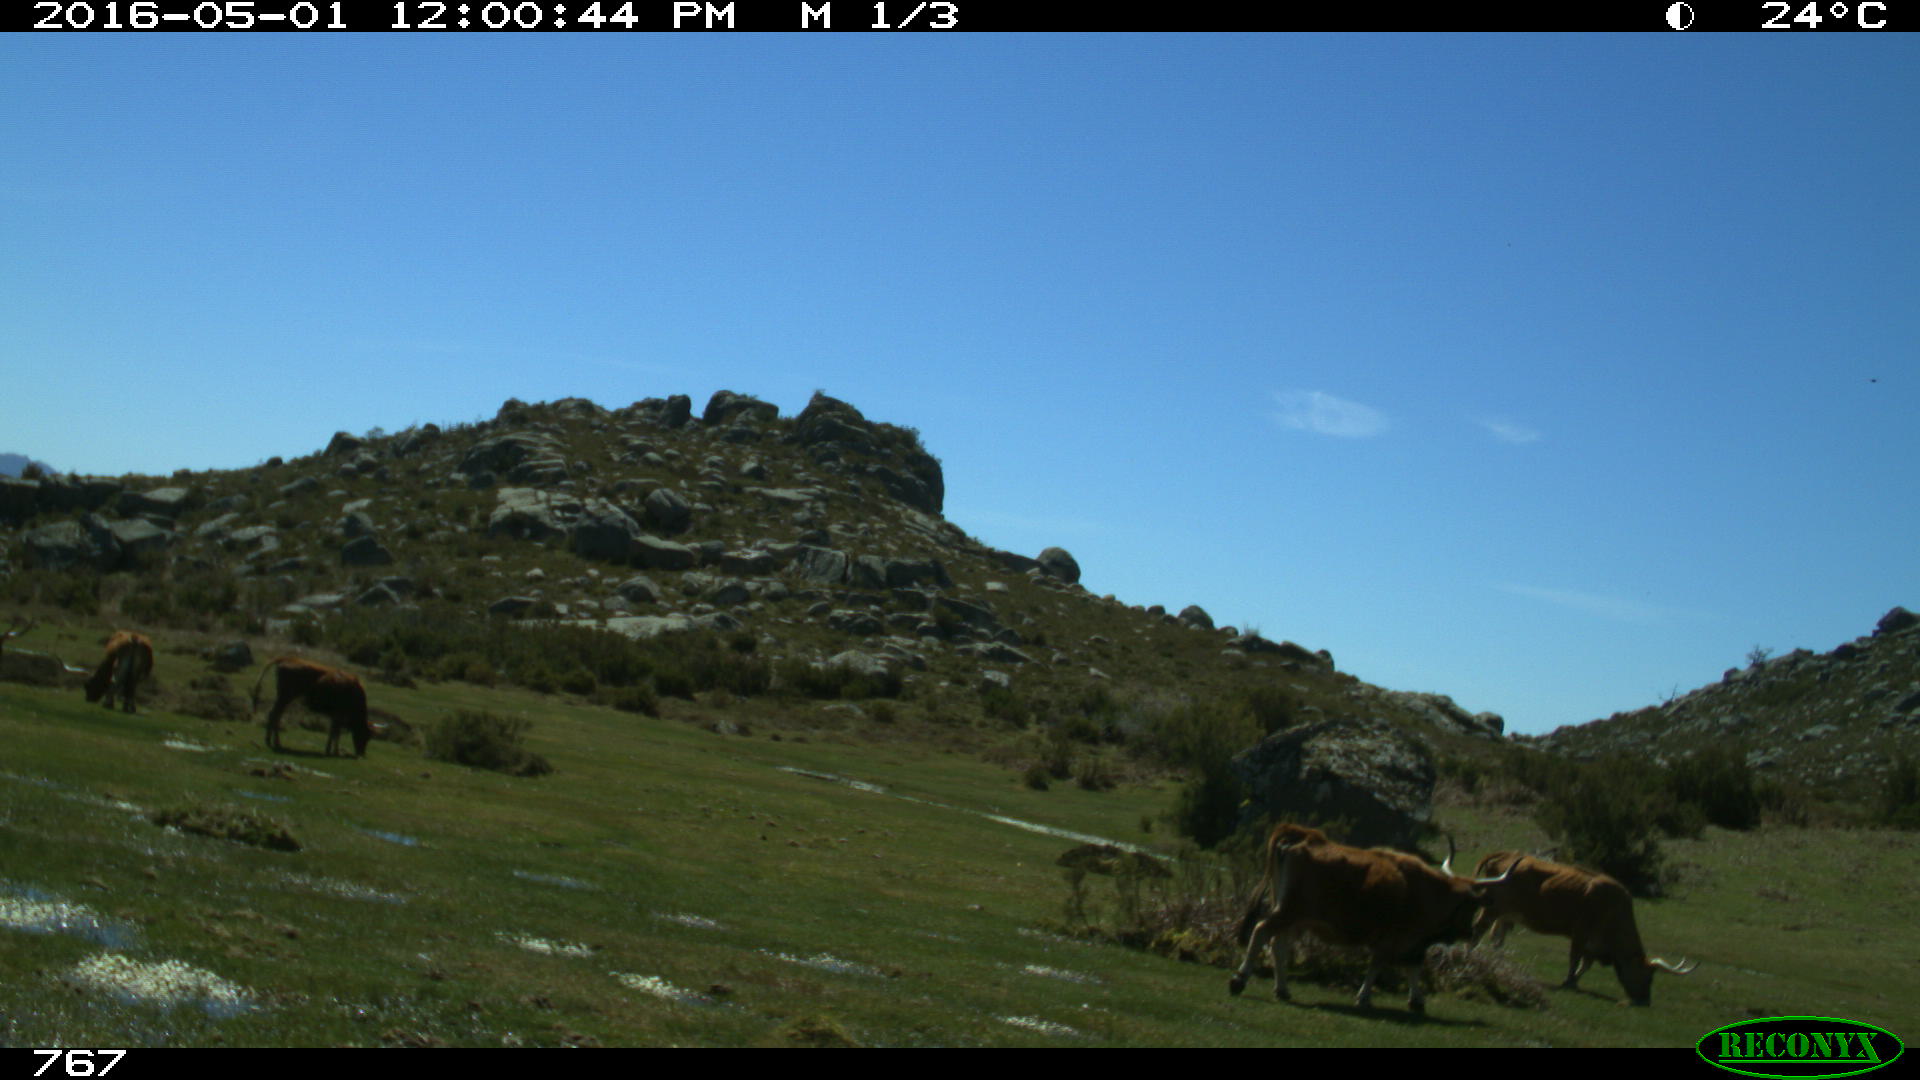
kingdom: Animalia
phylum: Chordata
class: Mammalia
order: Artiodactyla
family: Bovidae
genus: Bos
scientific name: Bos taurus
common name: Domesticated cattle
